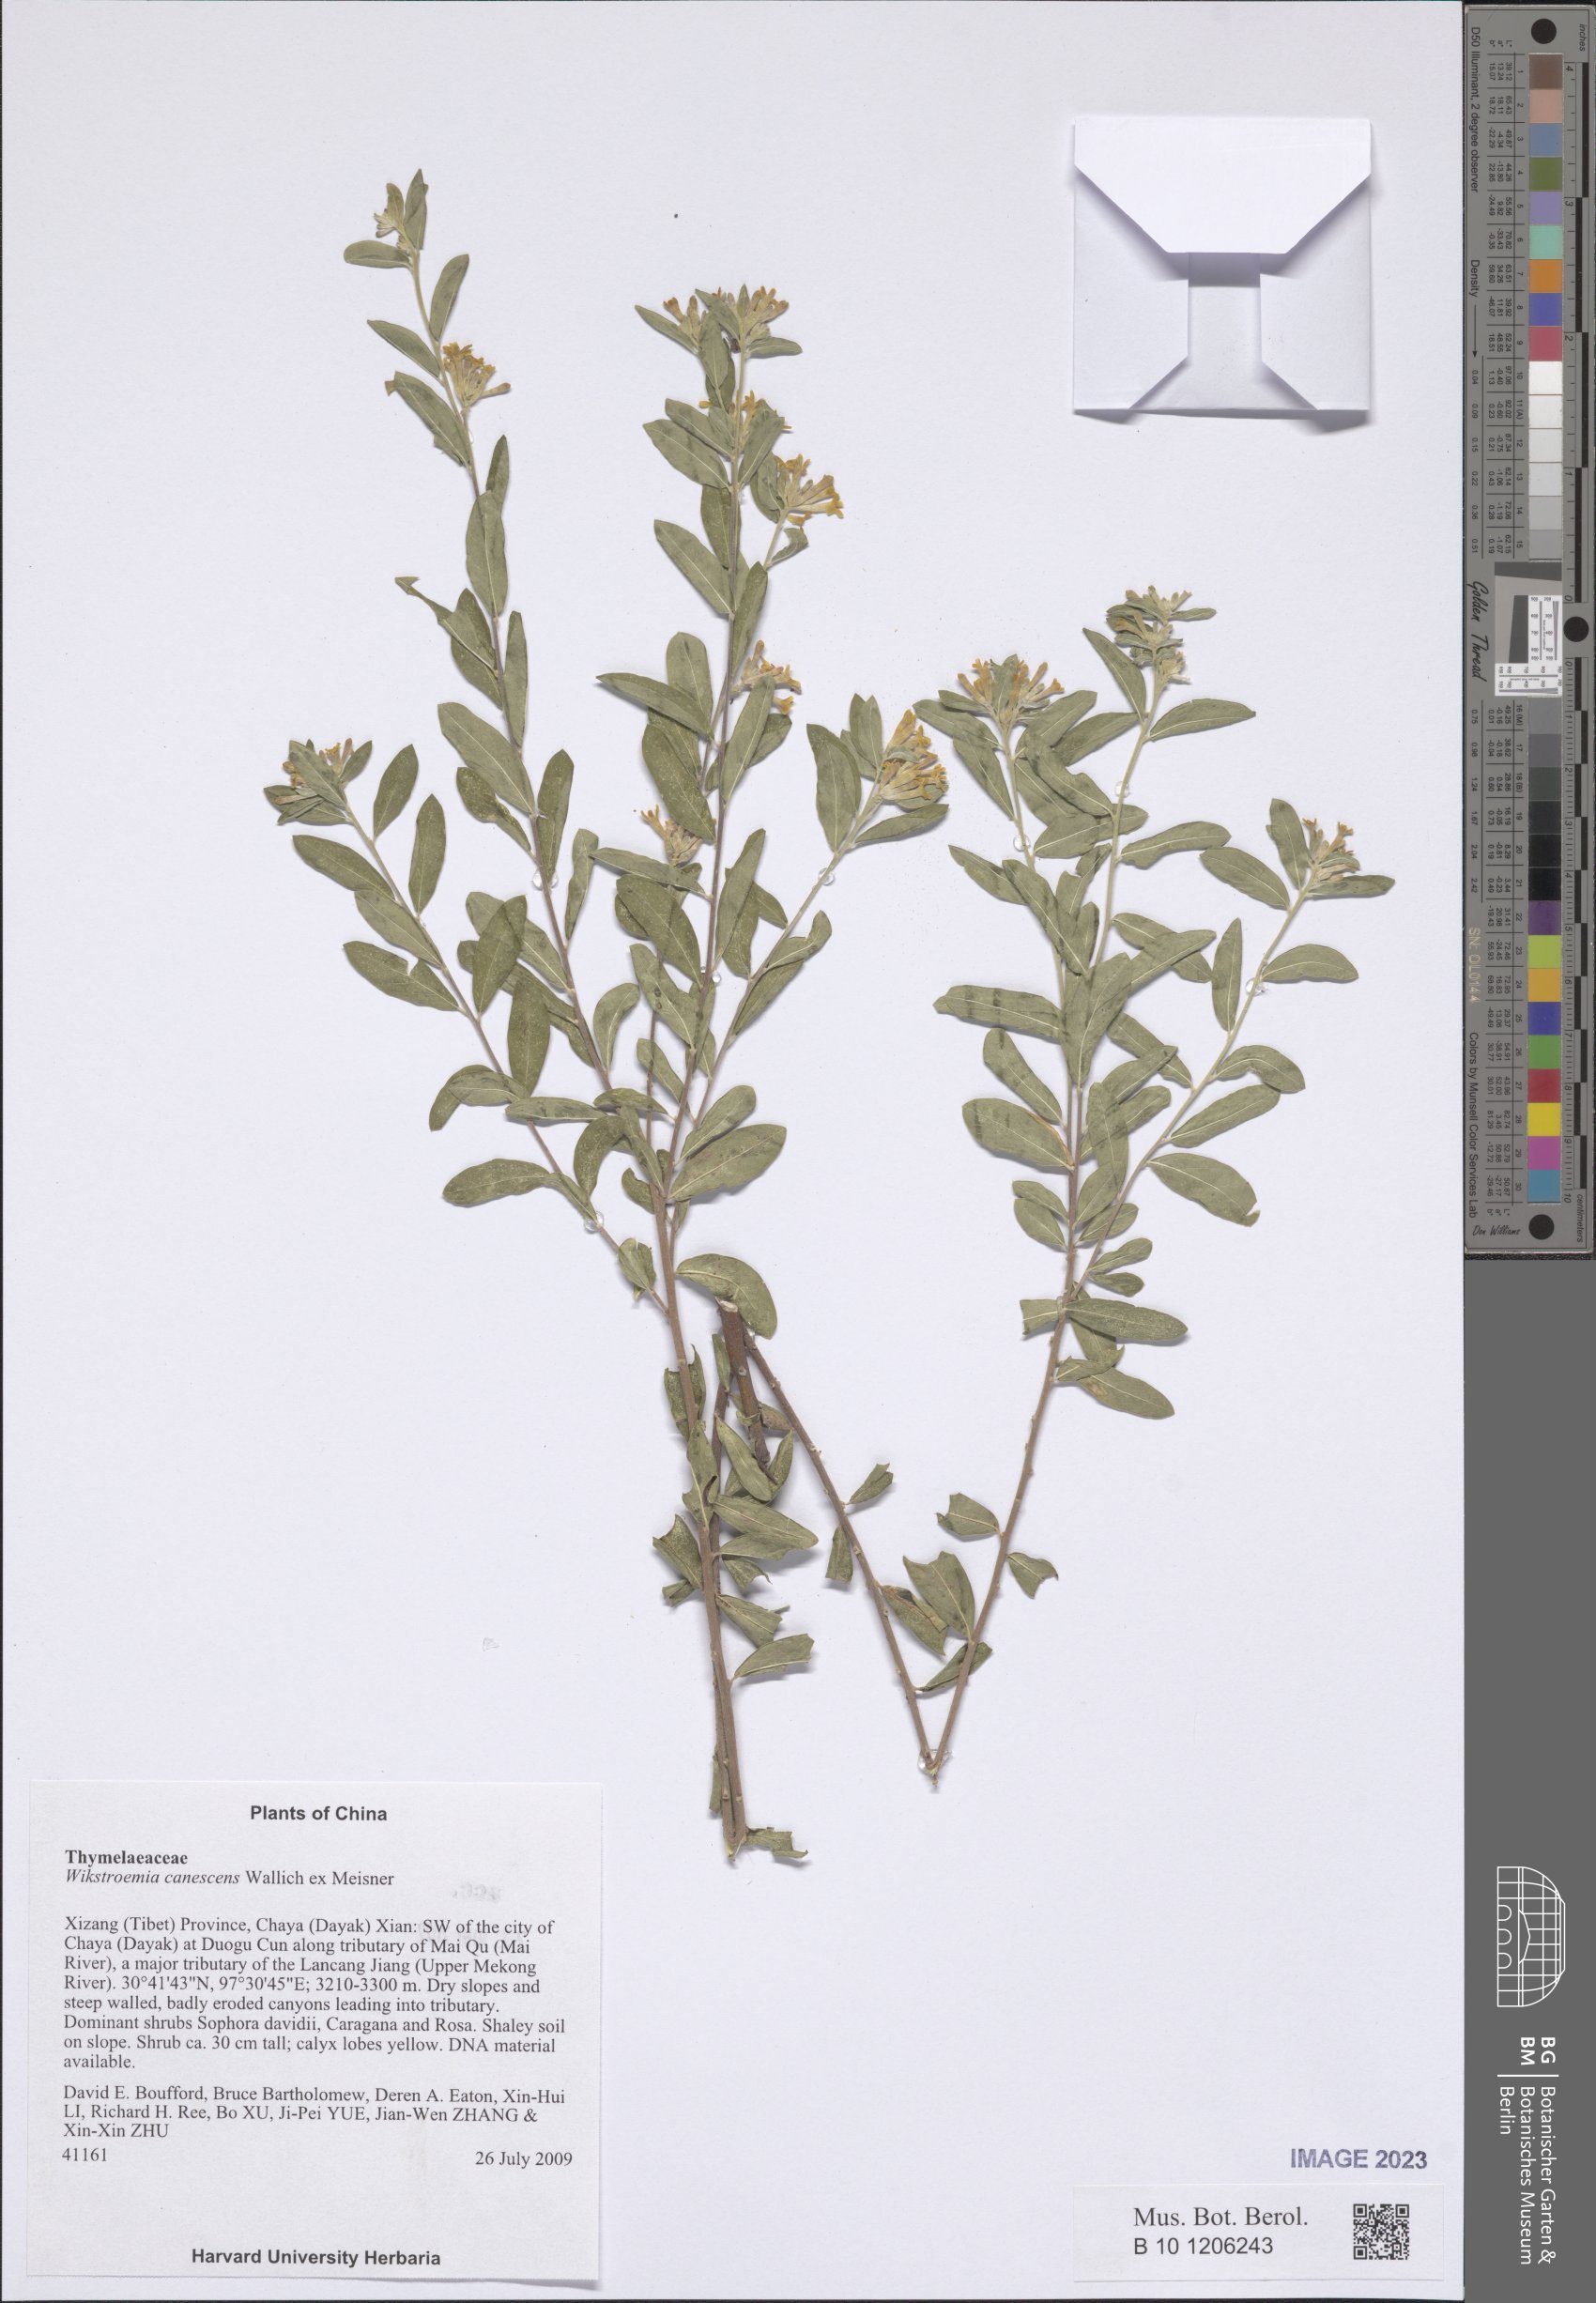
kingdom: Plantae
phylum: Tracheophyta
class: Magnoliopsida
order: Malvales
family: Thymelaeaceae
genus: Wikstroemia
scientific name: Wikstroemia canescens
